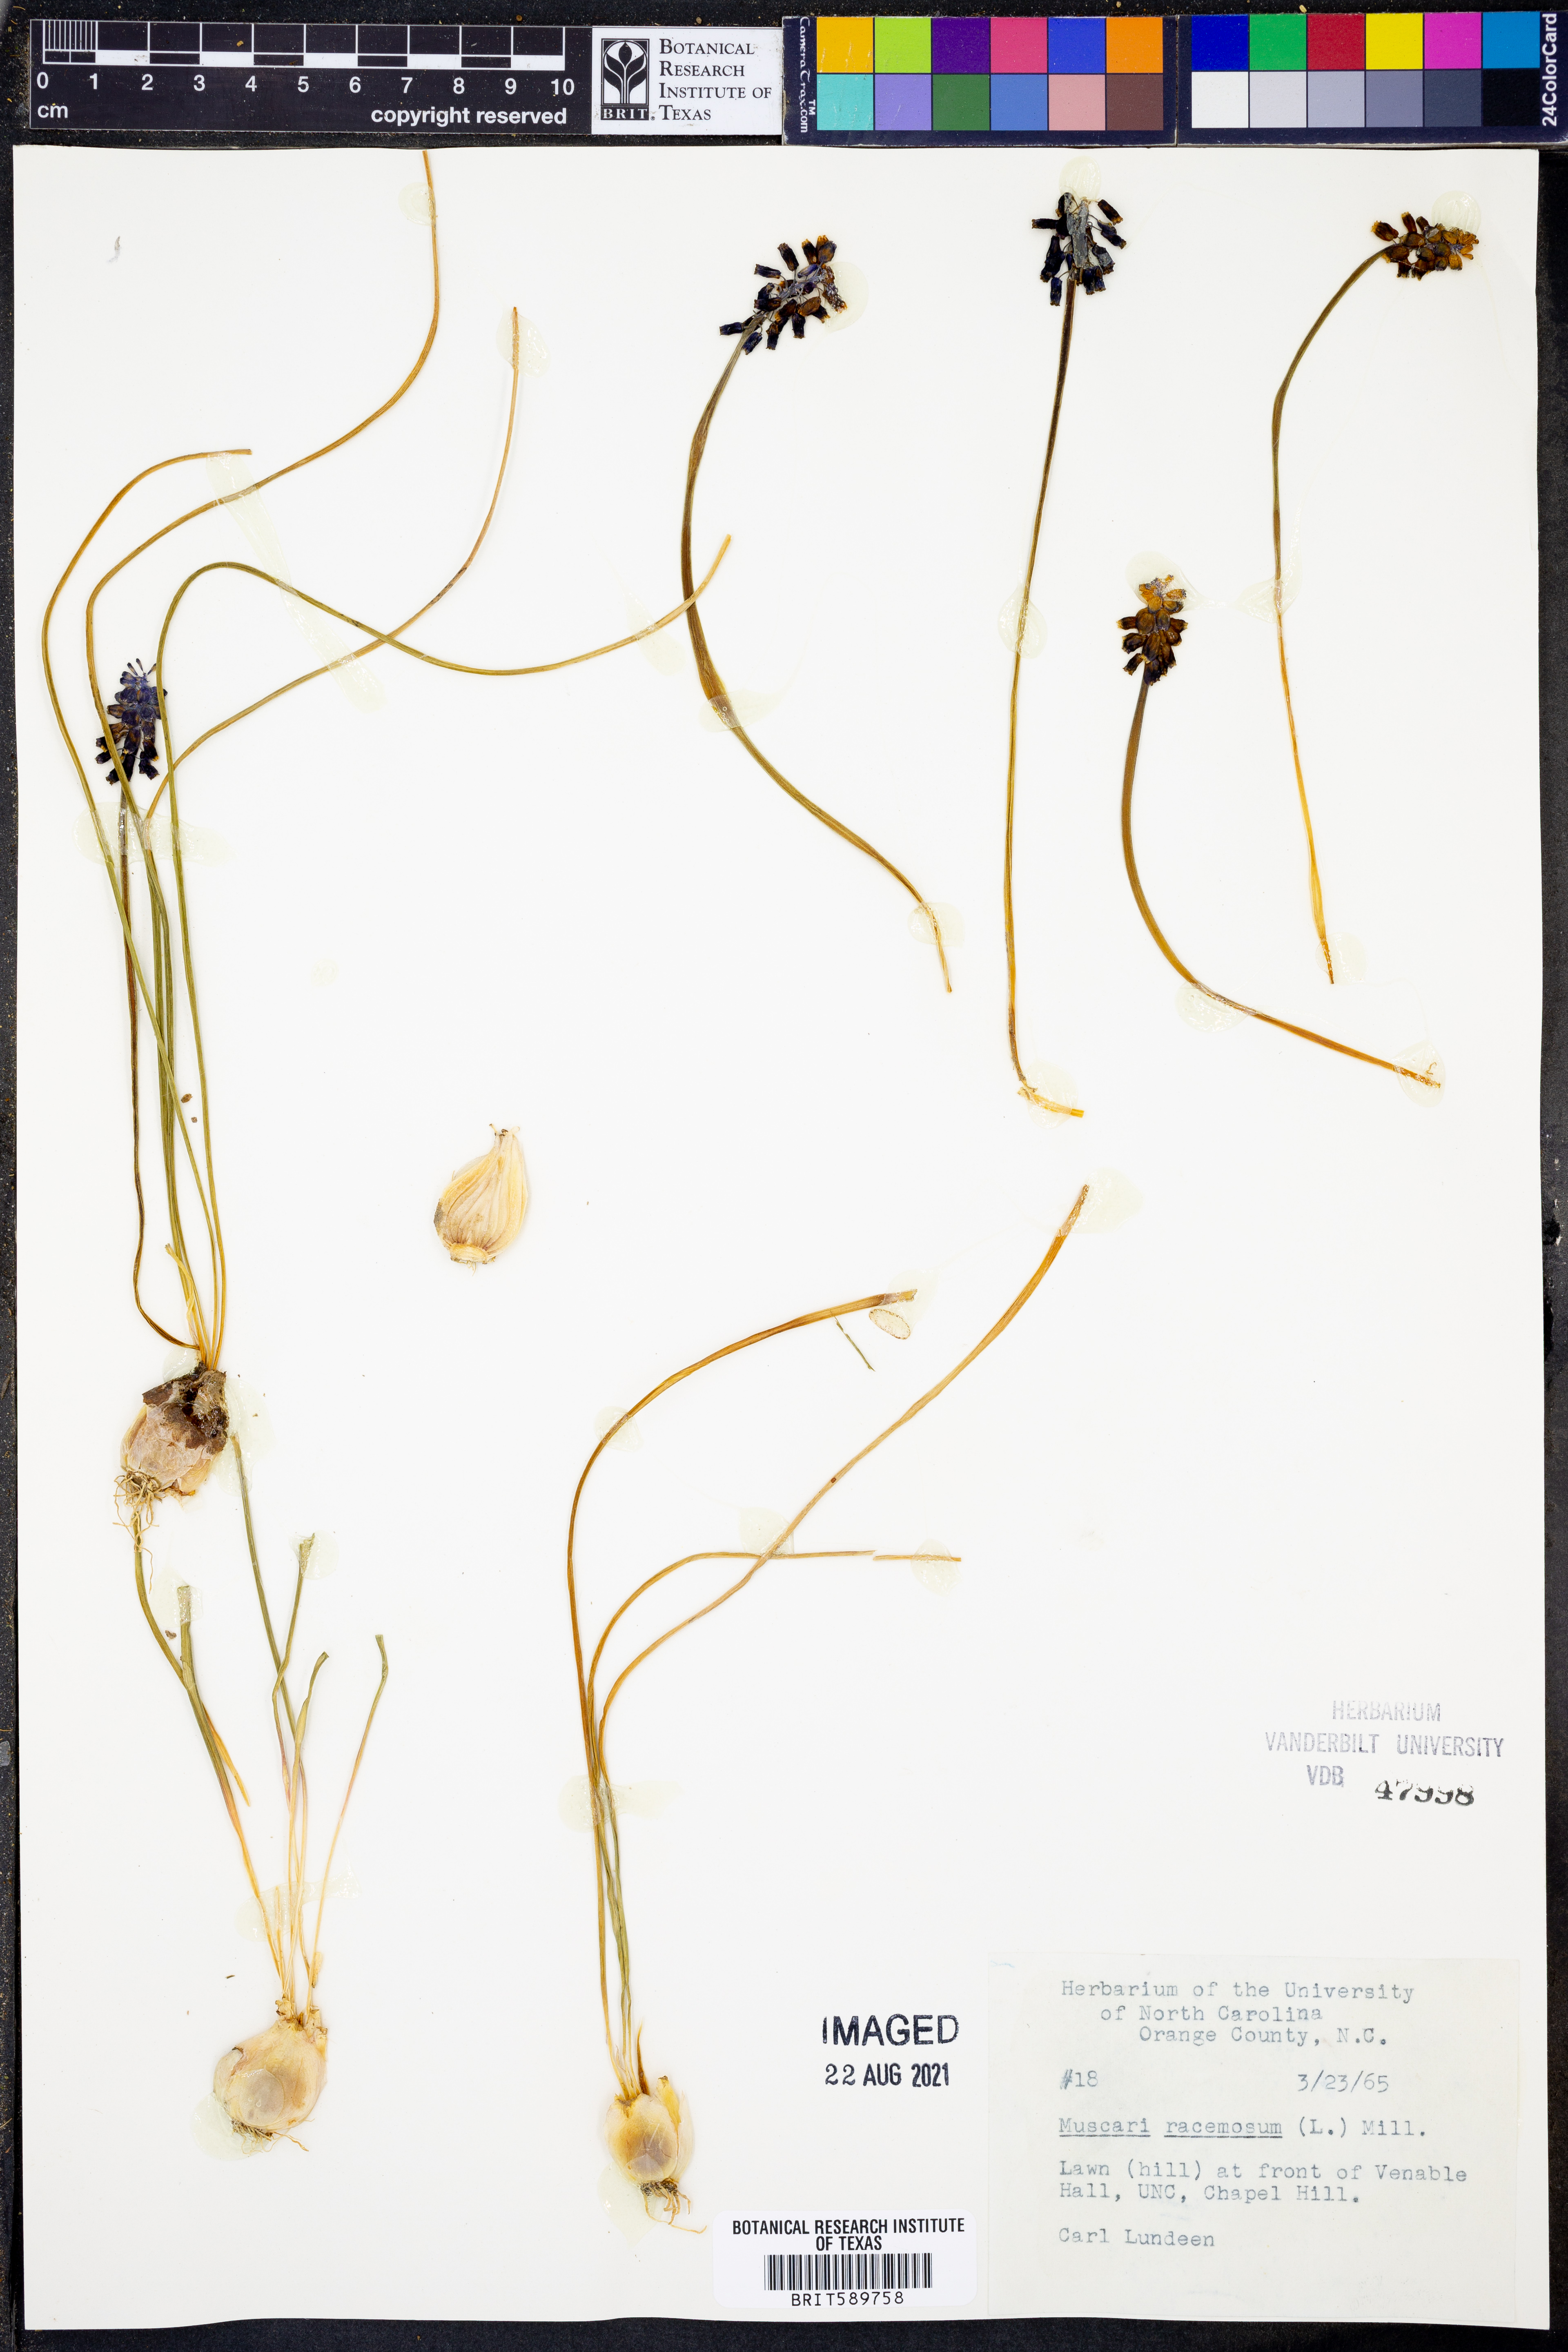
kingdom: Plantae
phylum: Tracheophyta
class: Liliopsida
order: Asparagales
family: Asparagaceae
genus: Muscarimia
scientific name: Muscarimia muscari
